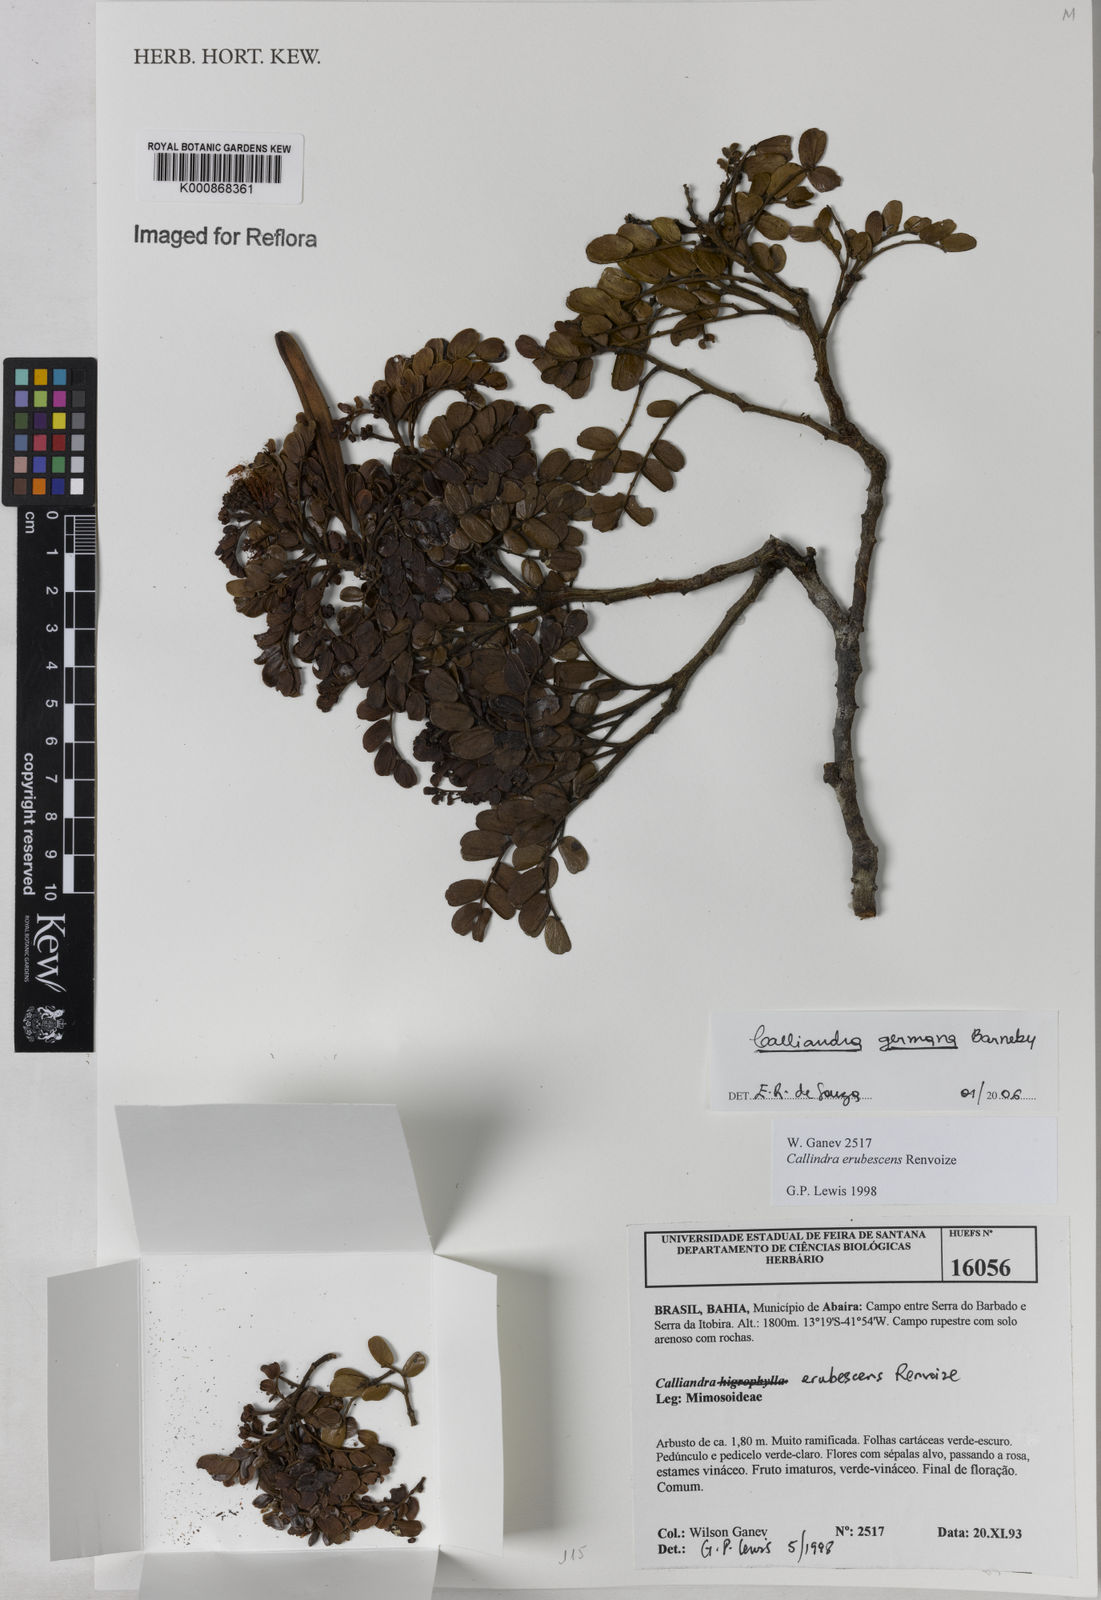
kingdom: Plantae
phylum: Tracheophyta
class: Magnoliopsida
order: Fabales
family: Fabaceae
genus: Calliandra
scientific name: Calliandra germana
